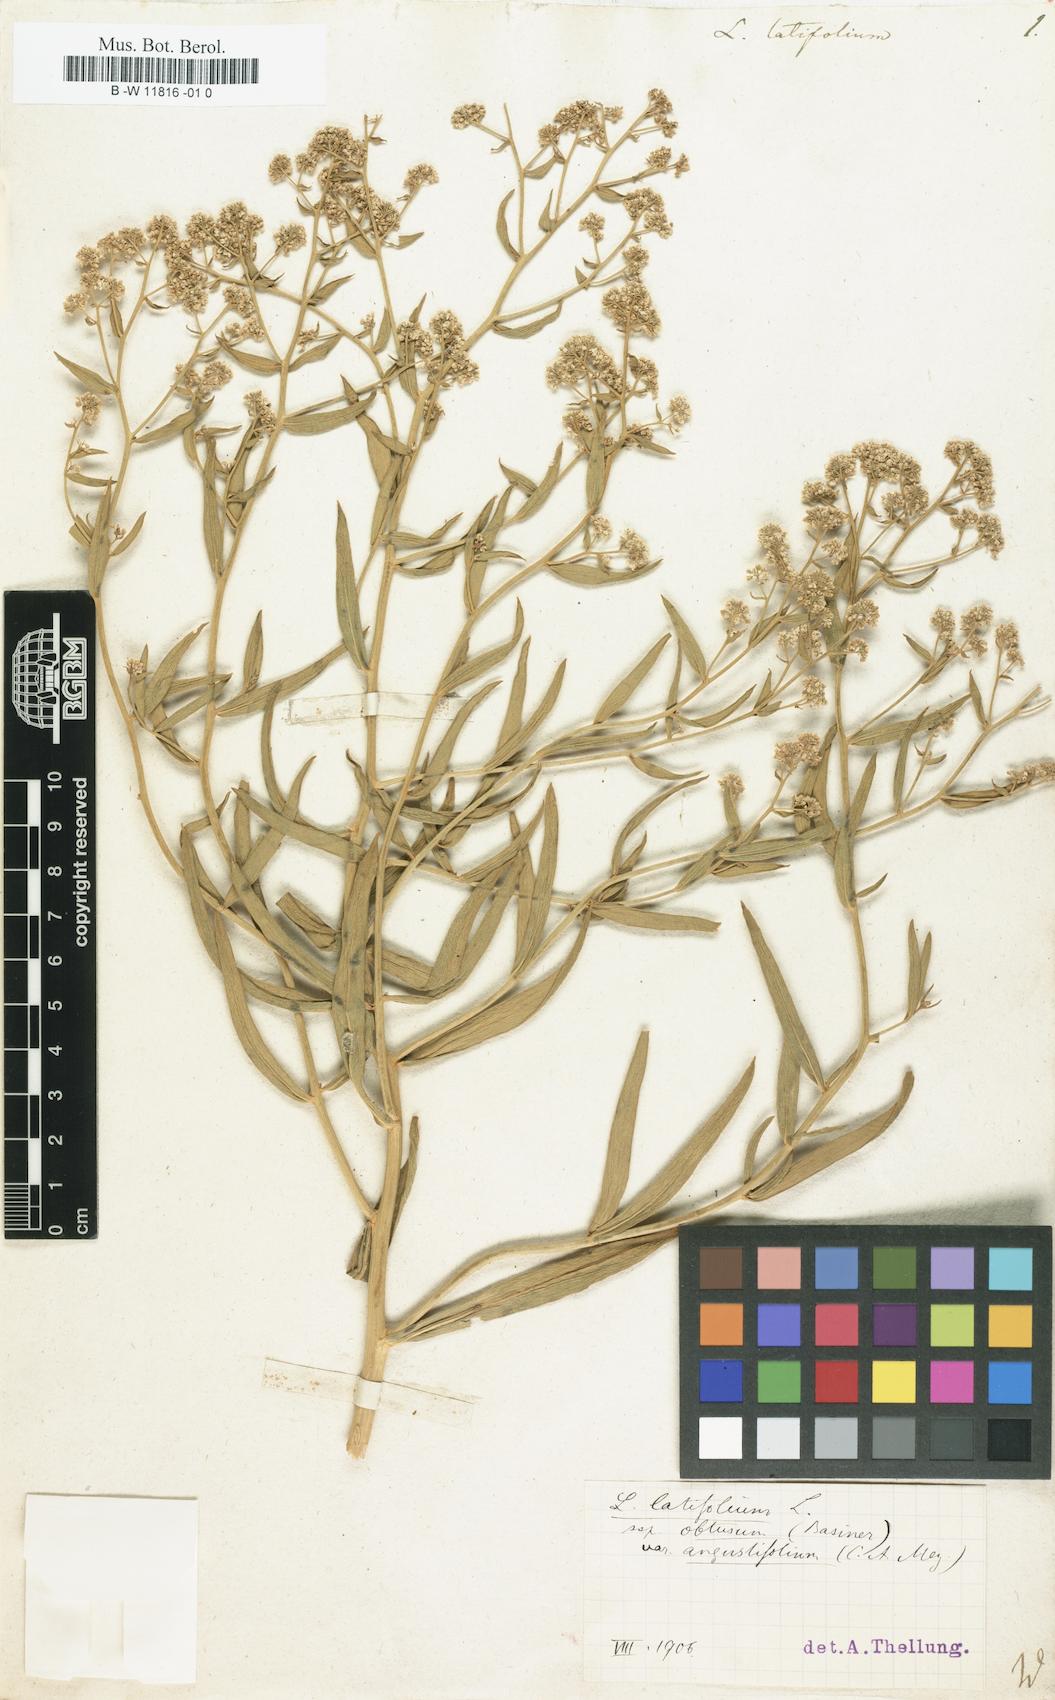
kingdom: Plantae
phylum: Tracheophyta
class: Magnoliopsida
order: Brassicales
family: Brassicaceae
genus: Lepidium
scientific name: Lepidium latifolium
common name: Dittander
